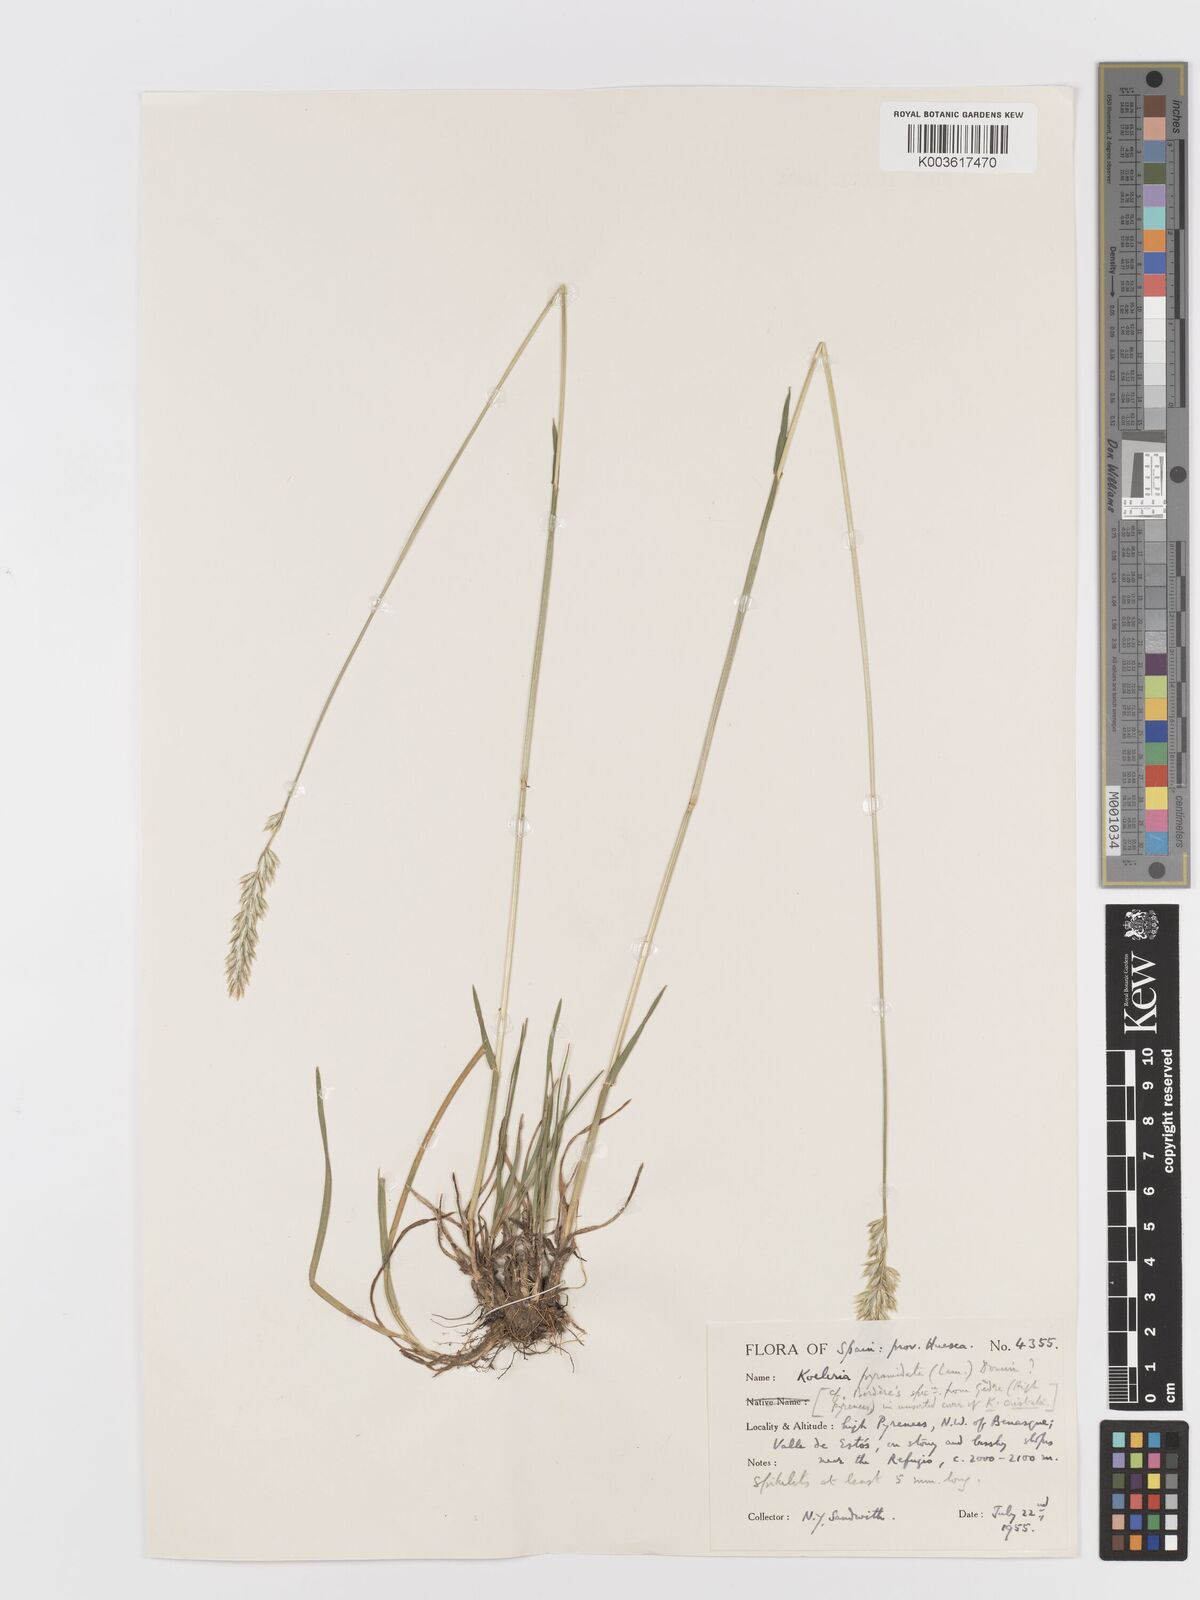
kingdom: Plantae
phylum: Tracheophyta
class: Liliopsida
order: Poales
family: Poaceae
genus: Koeleria
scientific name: Koeleria pyramidata
